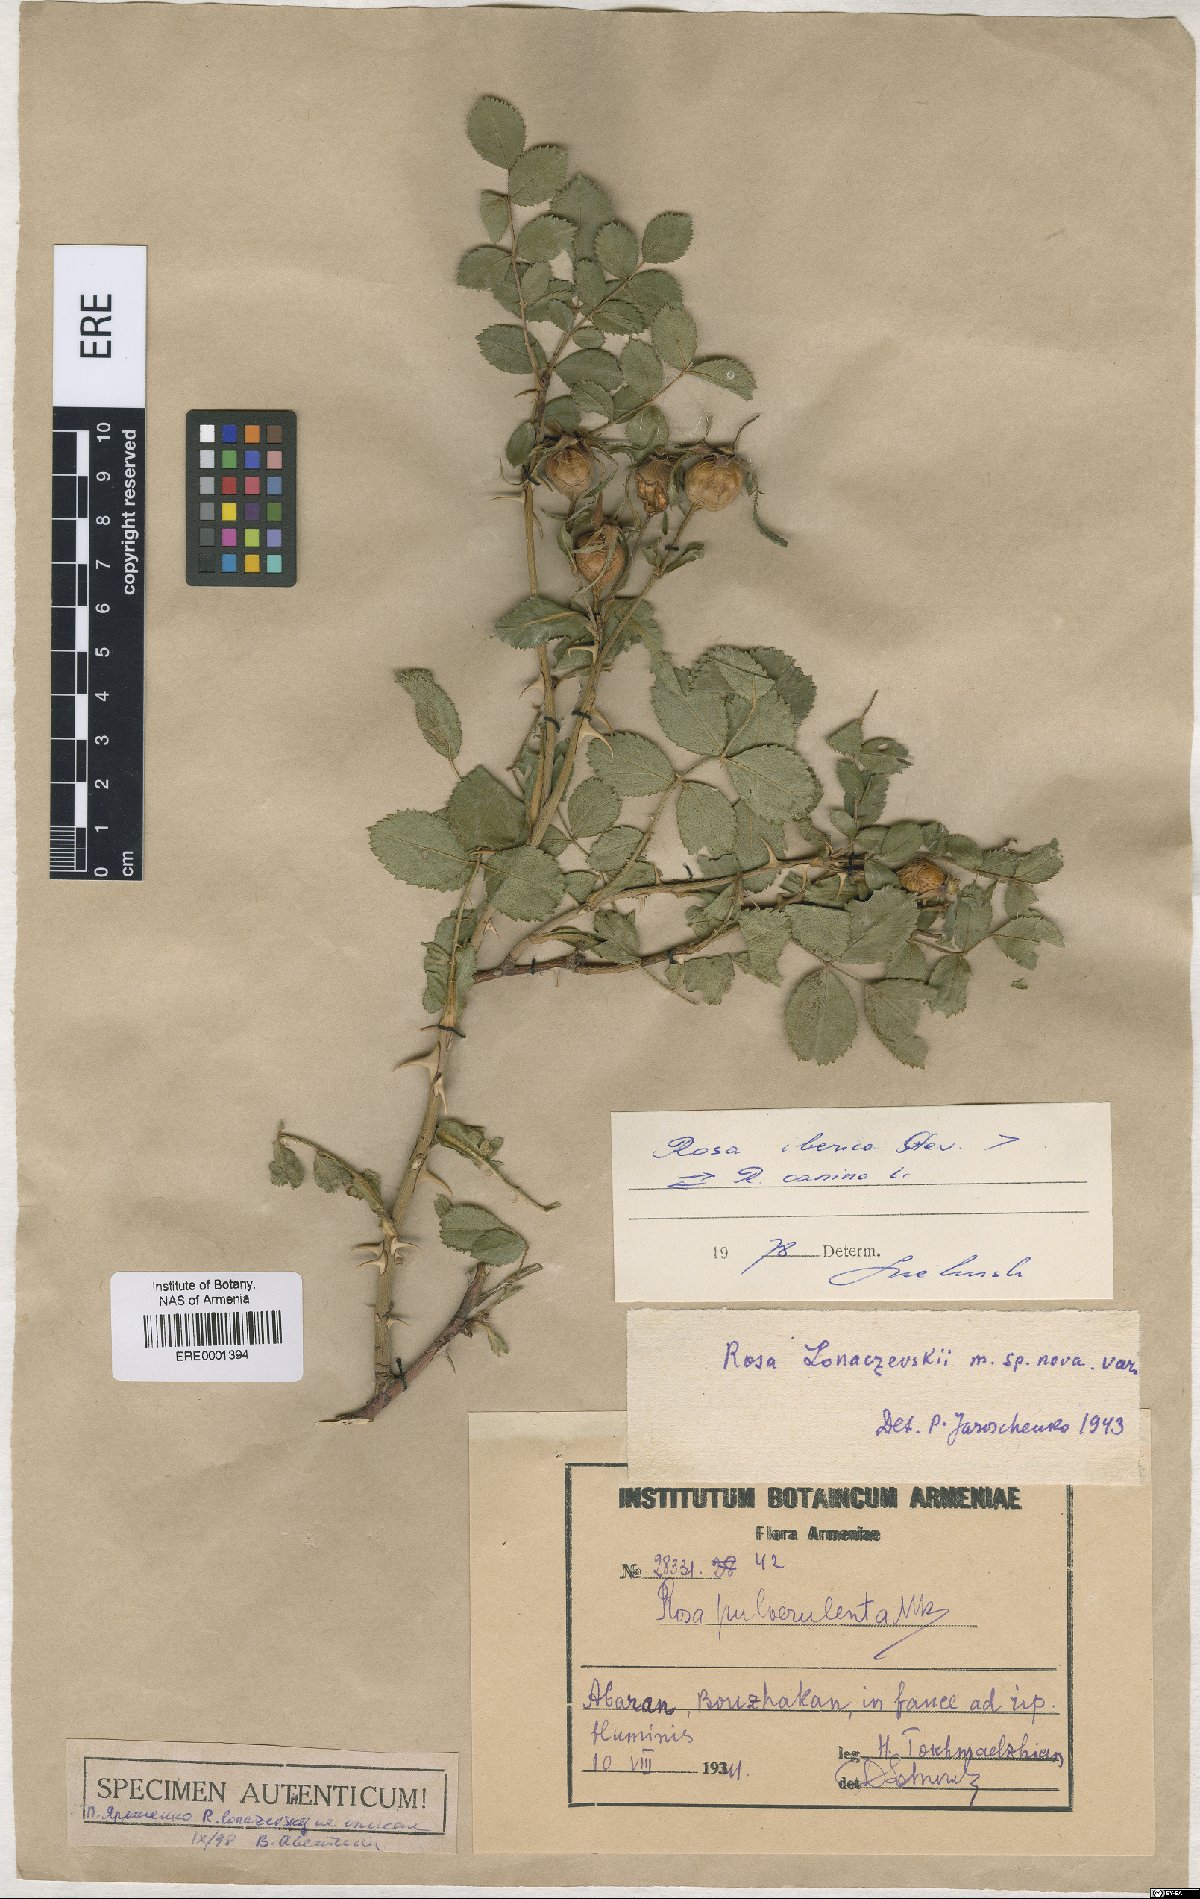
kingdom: Plantae
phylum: Tracheophyta
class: Magnoliopsida
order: Rosales
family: Rosaceae
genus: Rosa
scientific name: Rosa canina
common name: Dog rose
